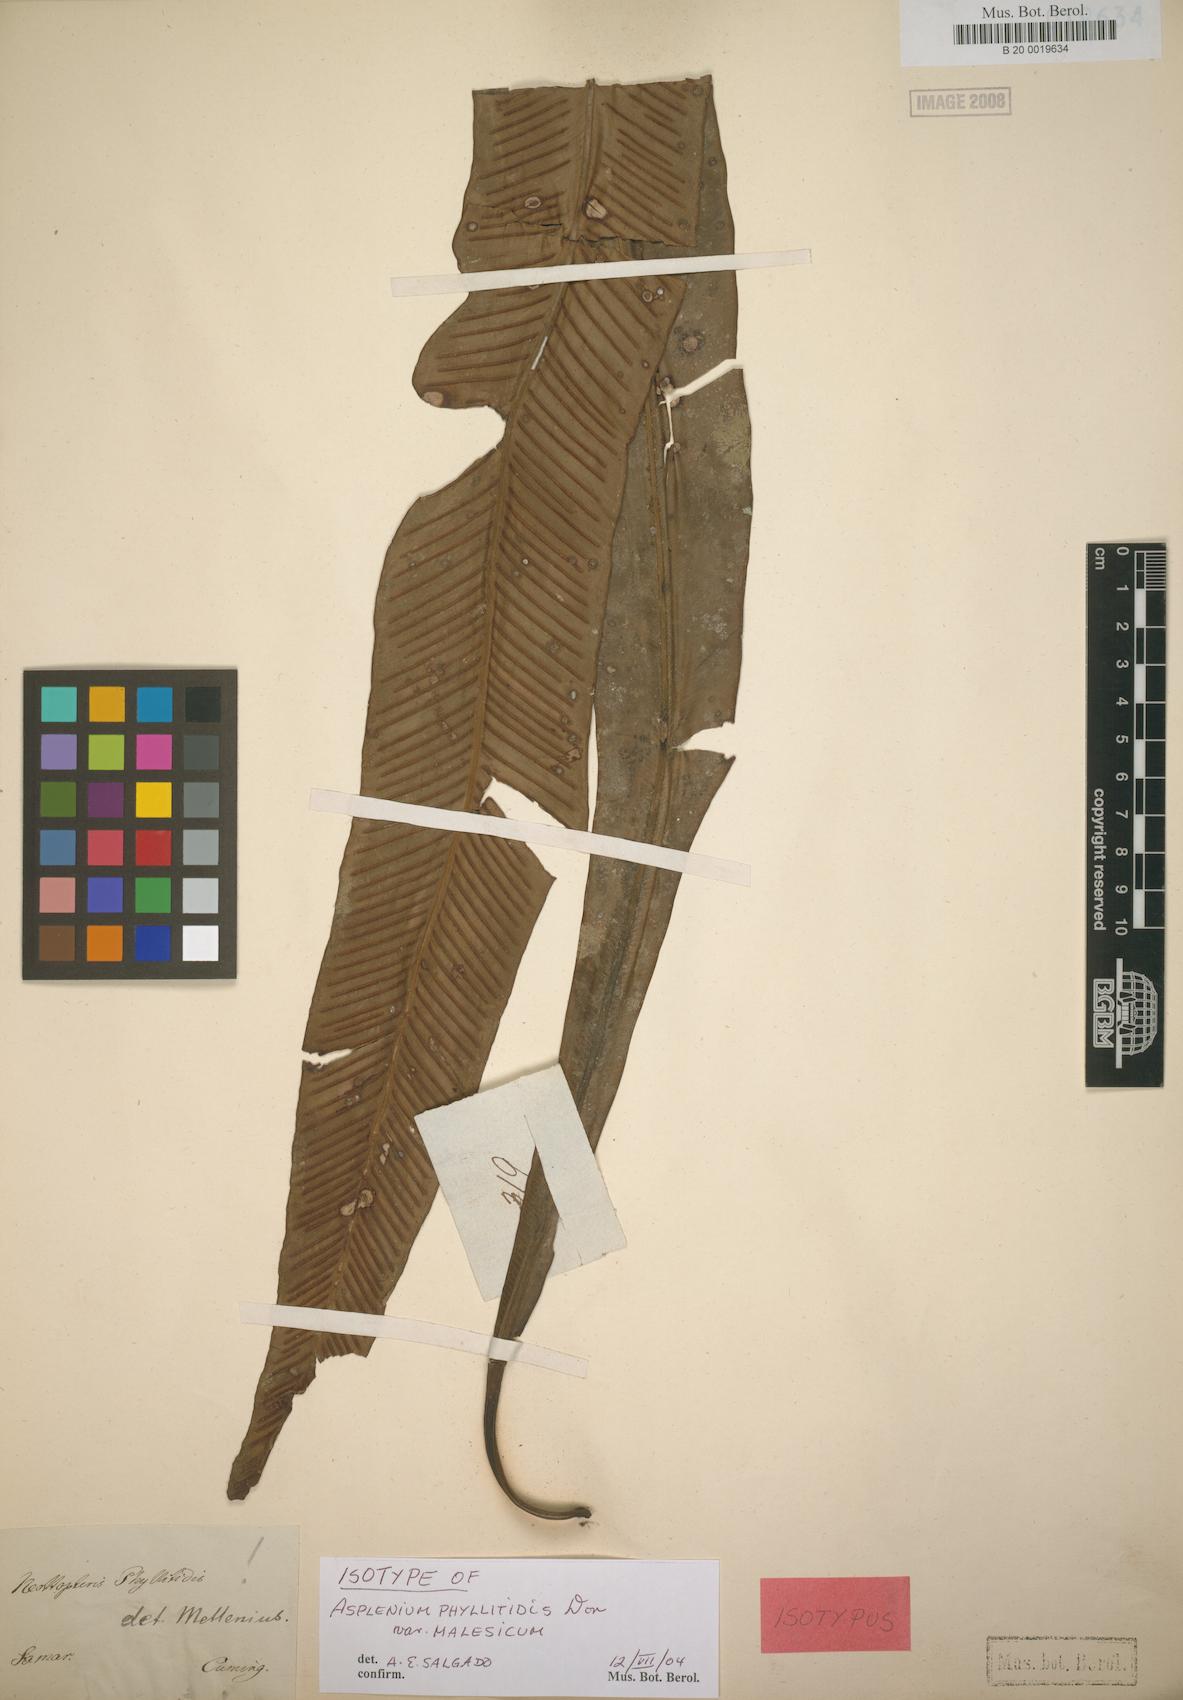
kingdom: Plantae
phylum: Tracheophyta
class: Polypodiopsida
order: Polypodiales
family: Aspleniaceae
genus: Asplenium
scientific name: Asplenium anguineum
